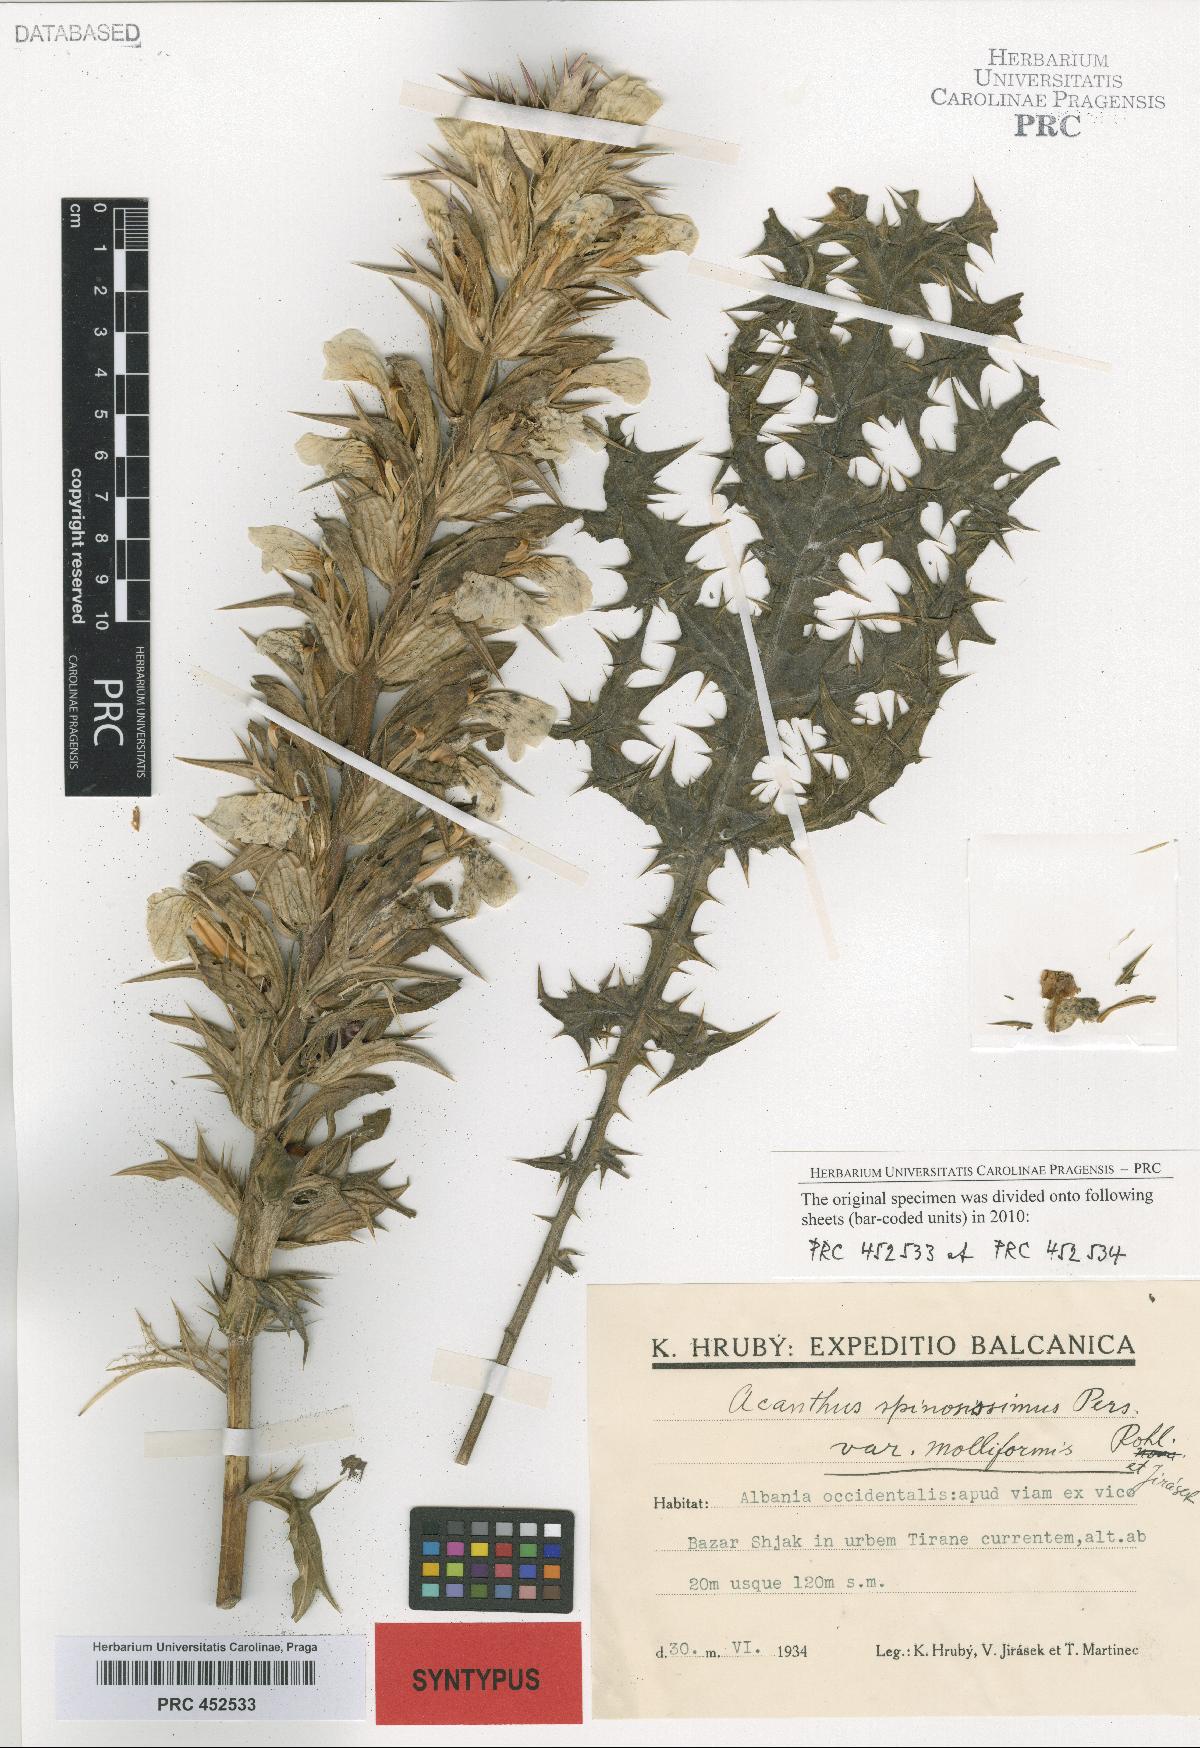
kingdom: Plantae
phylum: Tracheophyta
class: Magnoliopsida
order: Lamiales
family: Acanthaceae
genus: Acanthus
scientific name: Acanthus spinosus
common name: Spiny bear's-breech
